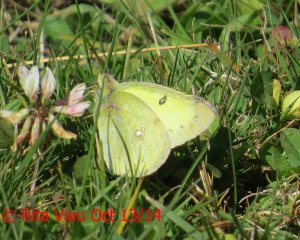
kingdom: Animalia
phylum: Arthropoda
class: Insecta
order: Lepidoptera
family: Pieridae
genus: Colias
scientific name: Colias philodice
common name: Clouded Sulphur
